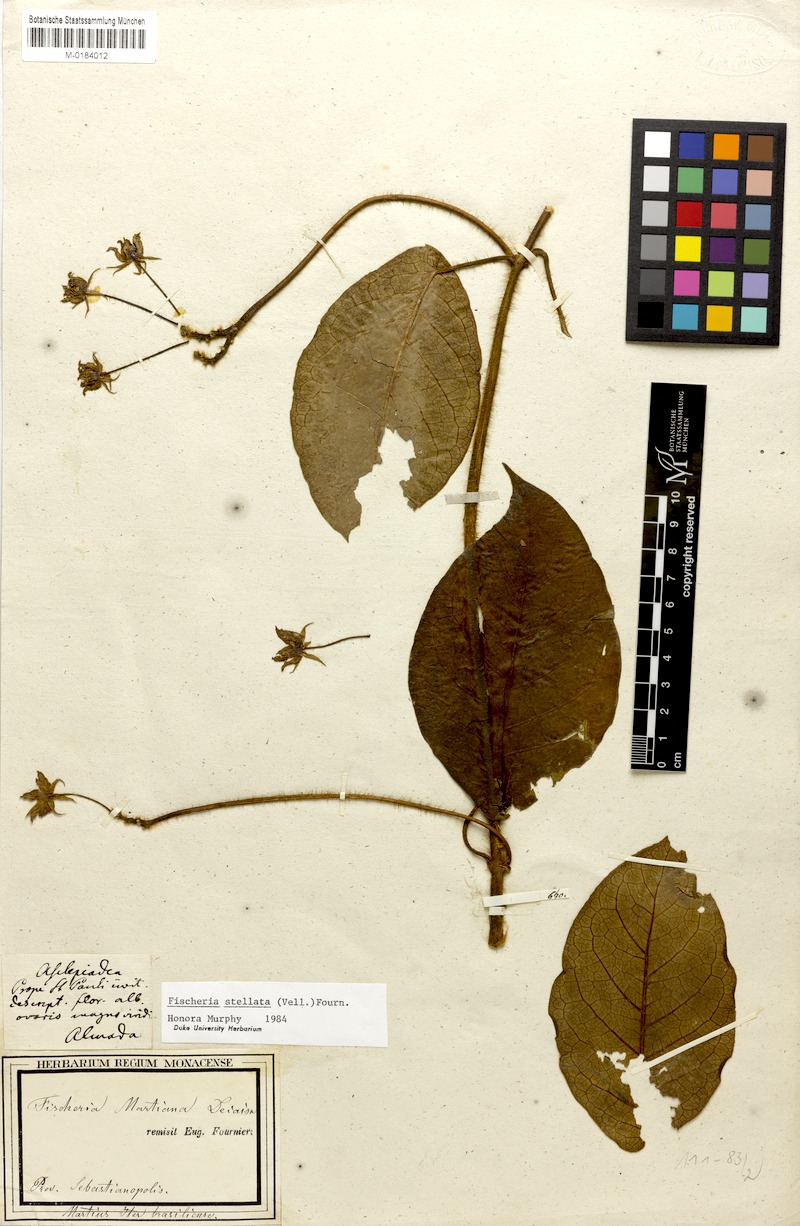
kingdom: Plantae
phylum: Tracheophyta
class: Magnoliopsida
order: Gentianales
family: Apocynaceae
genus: Fischeria
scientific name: Fischeria stellata
